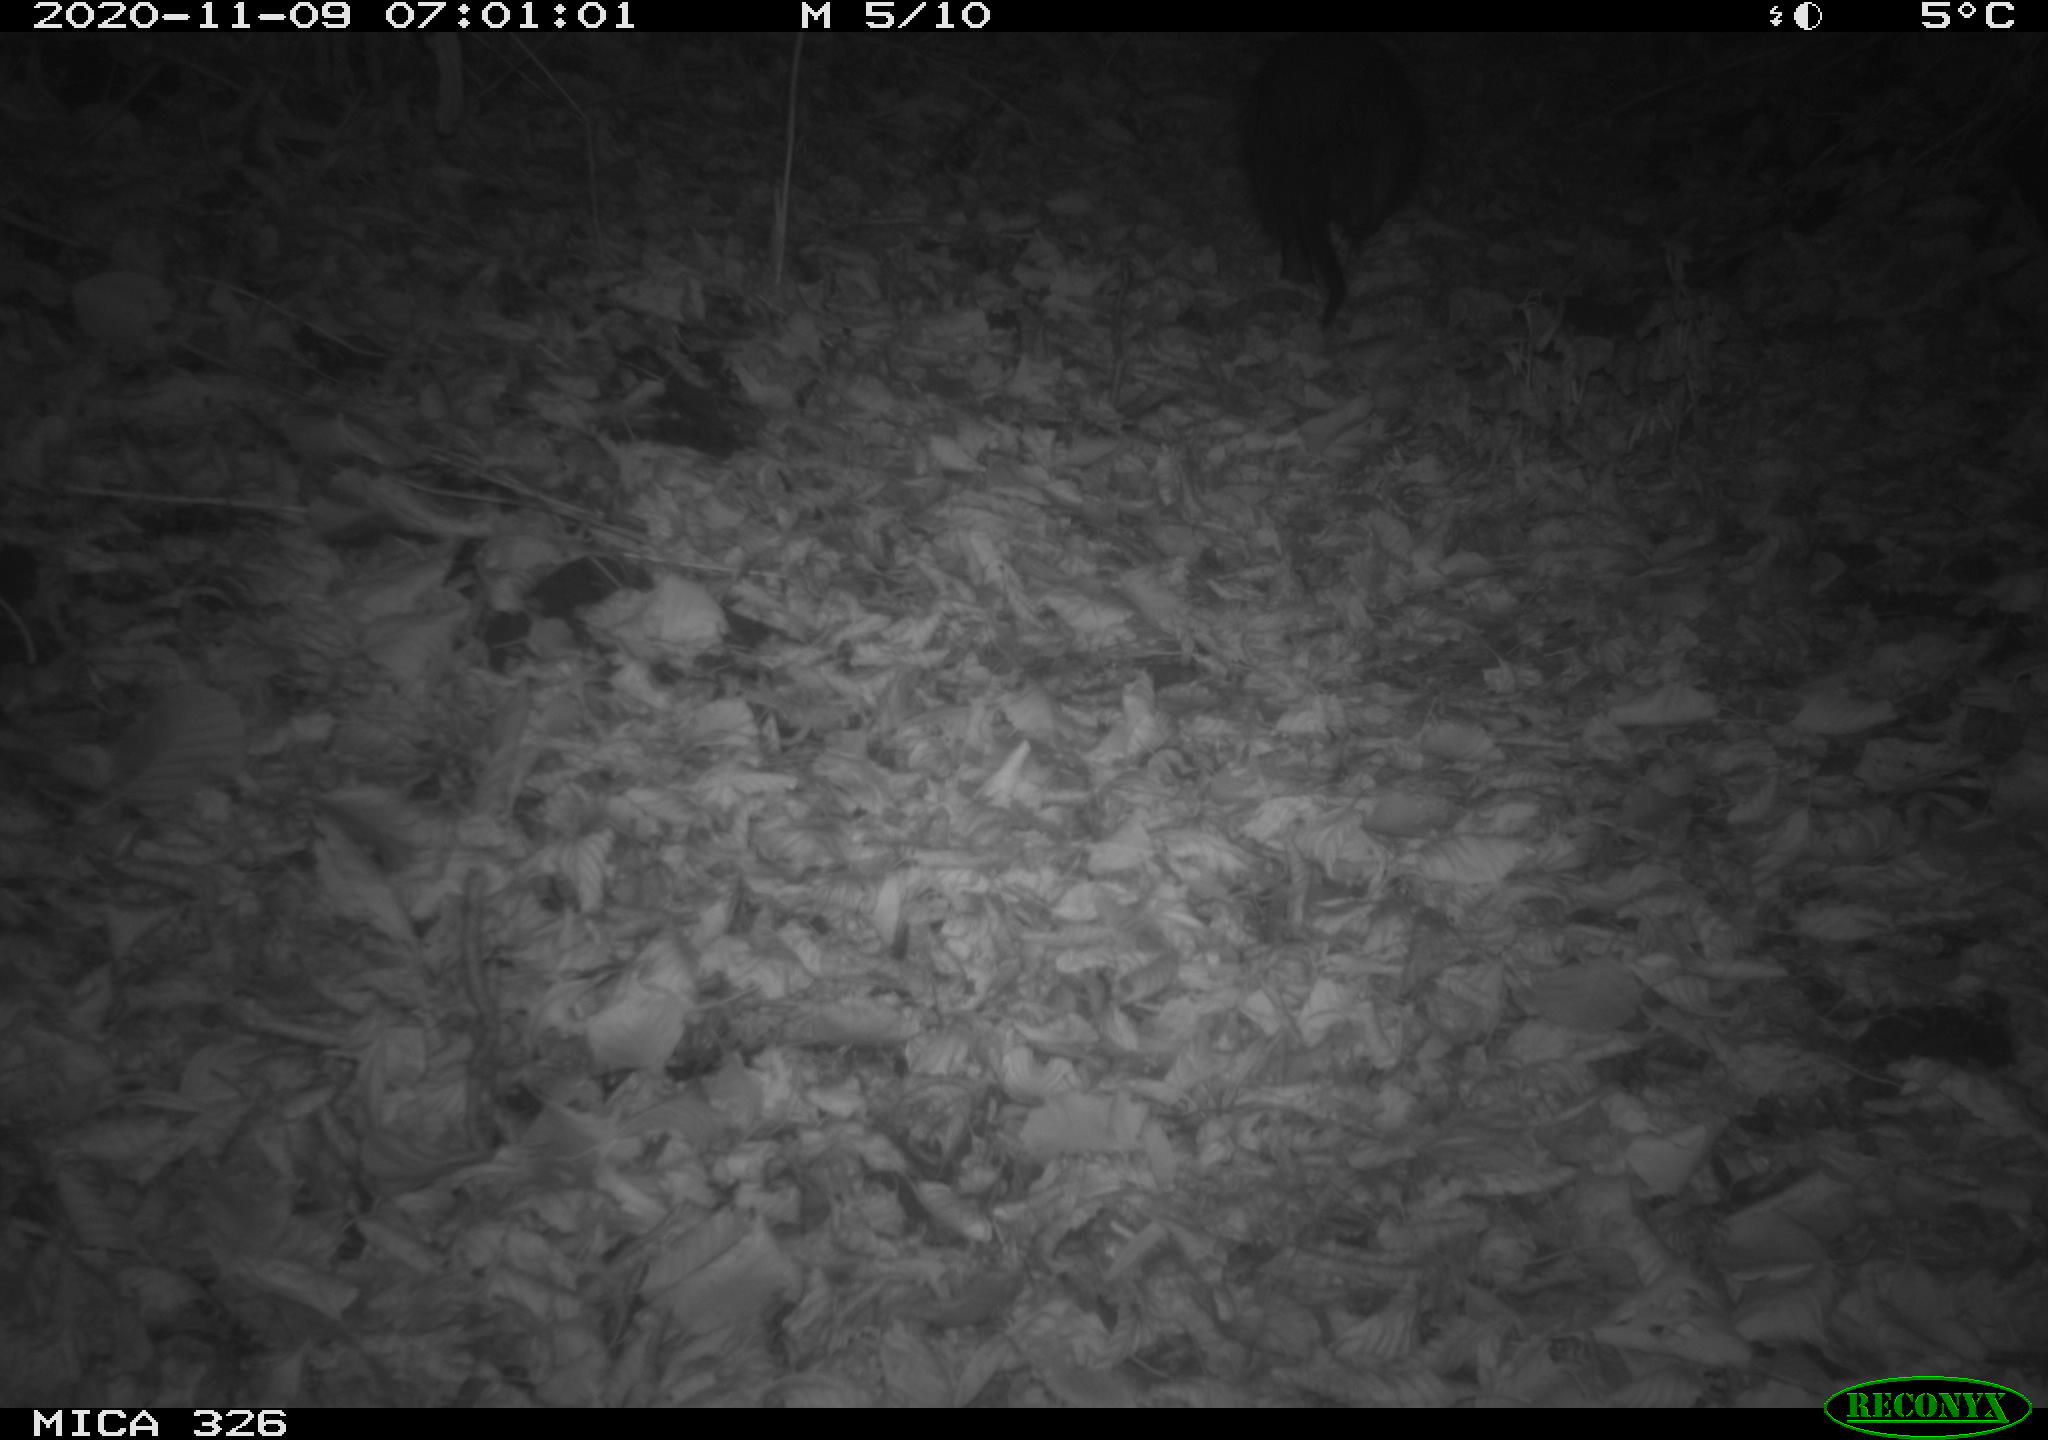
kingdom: Animalia
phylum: Chordata
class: Mammalia
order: Rodentia
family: Myocastoridae
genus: Myocastor
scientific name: Myocastor coypus
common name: Coypu
